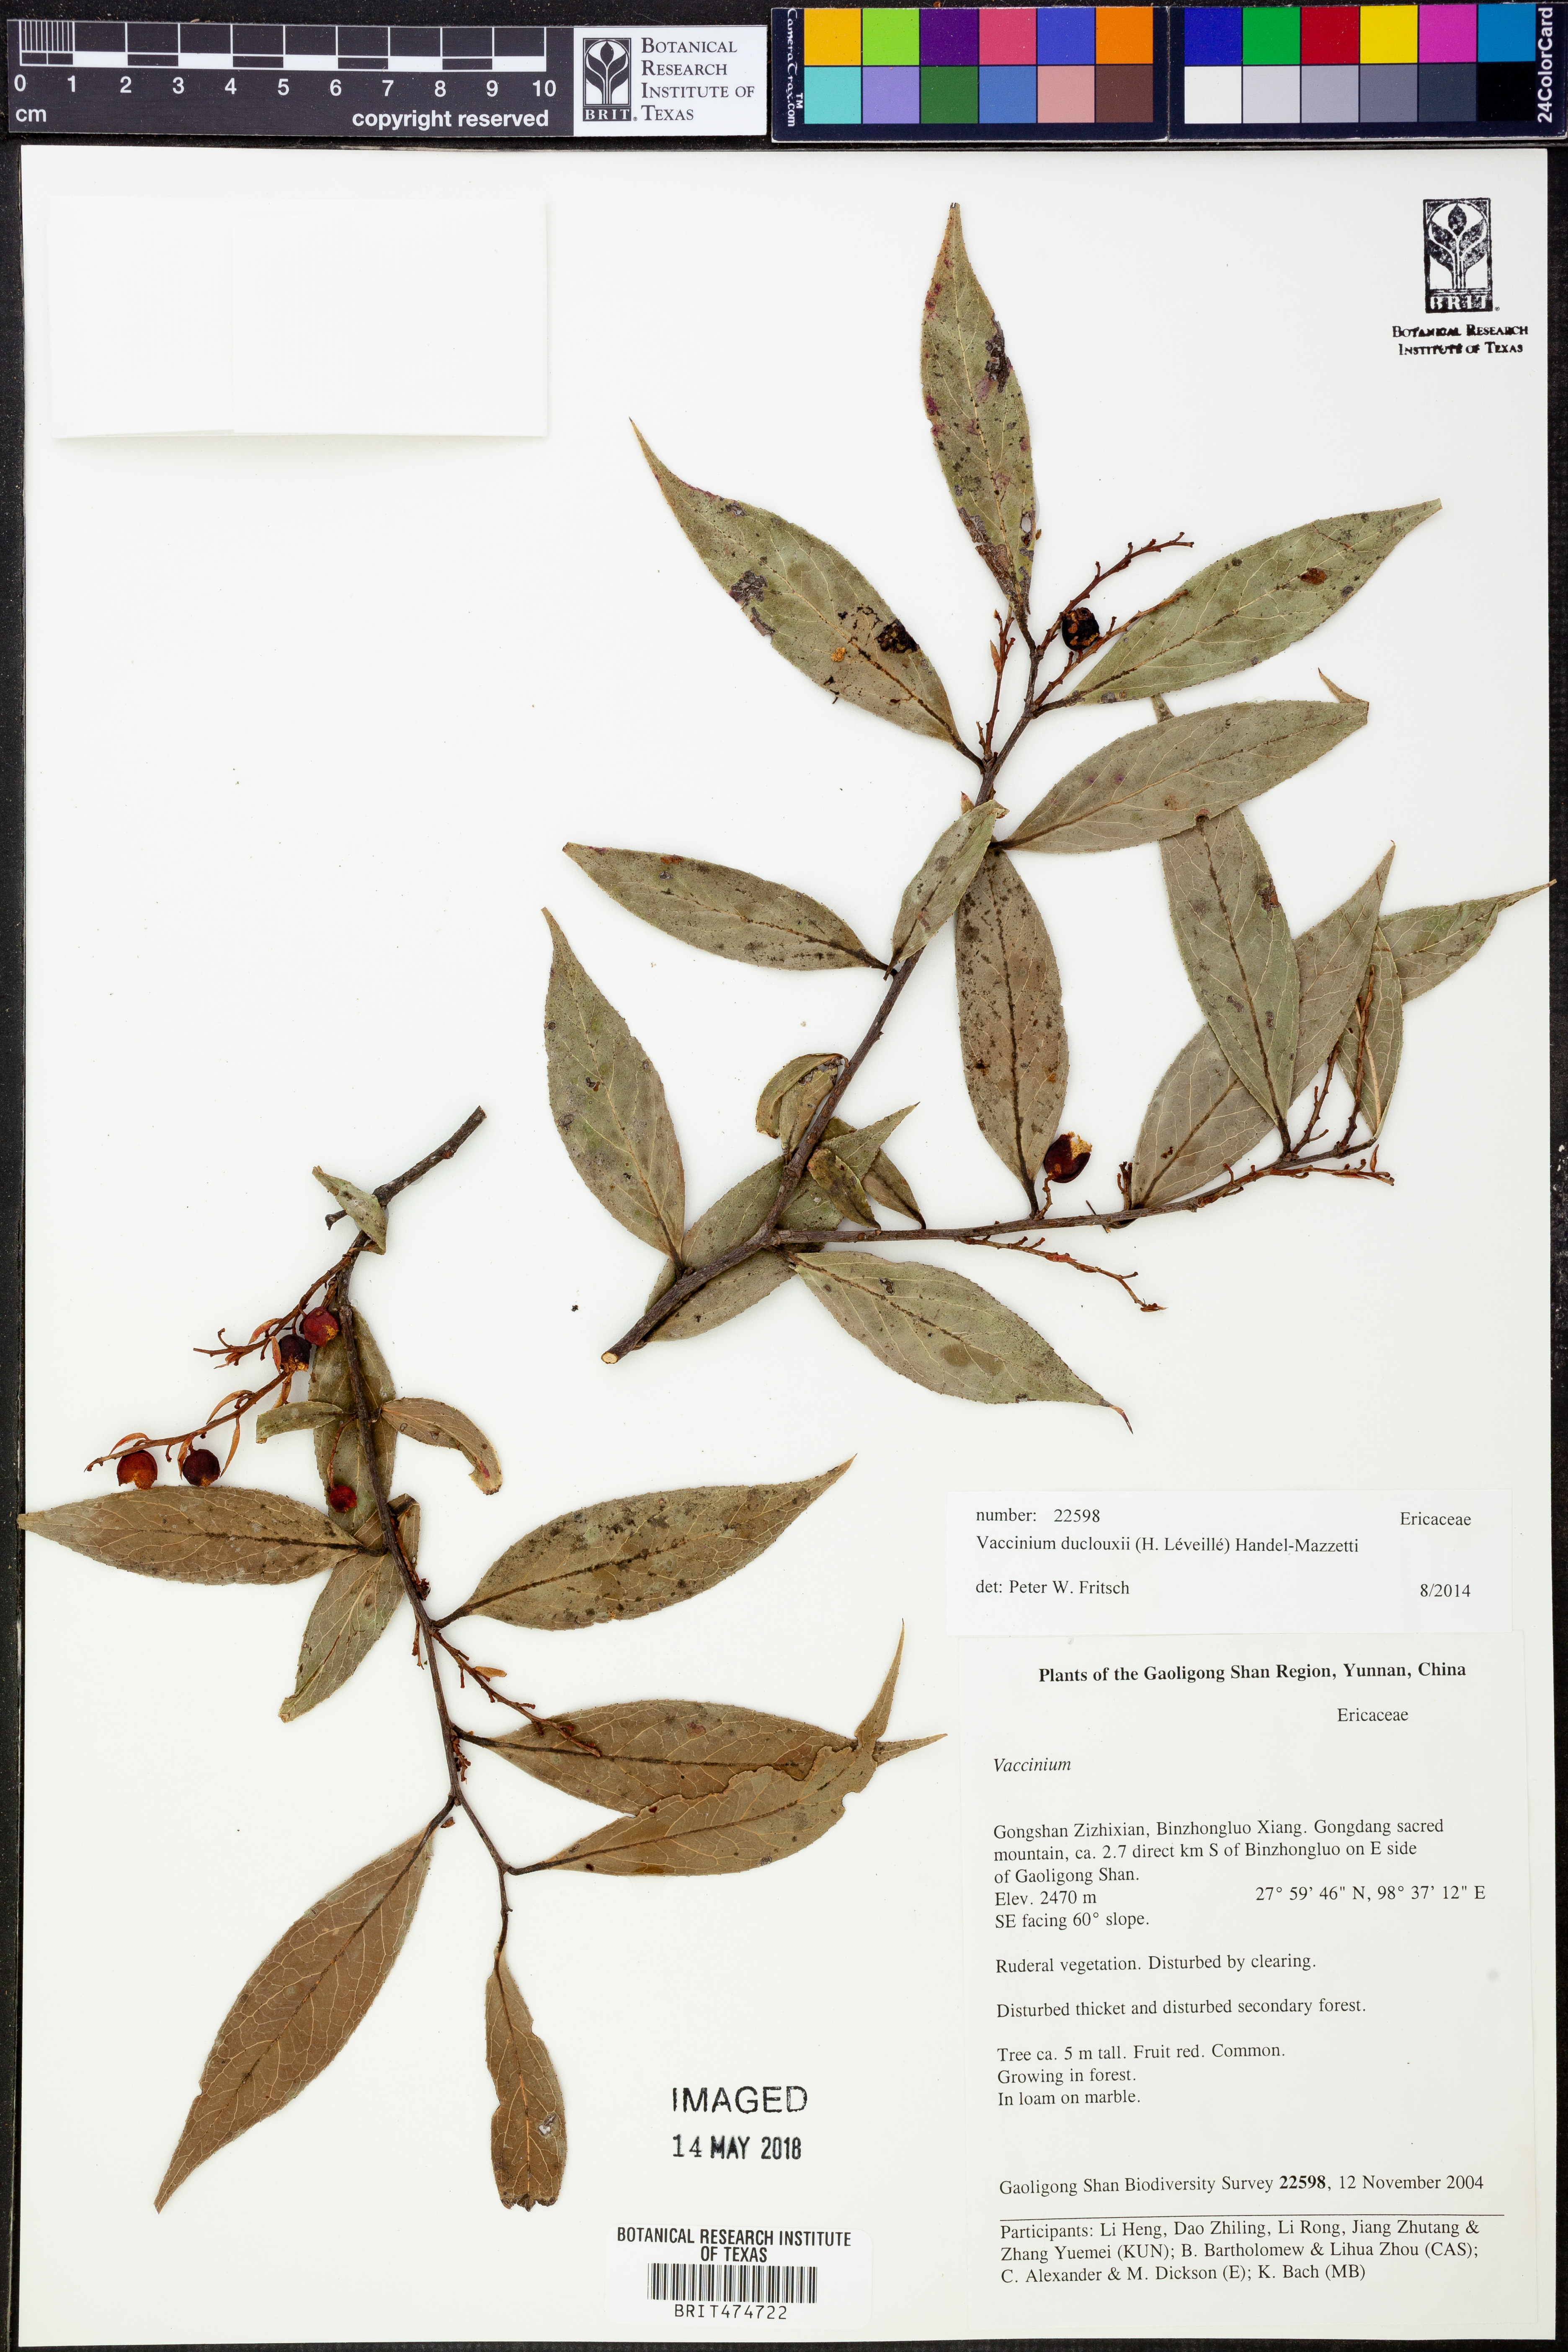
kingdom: Plantae
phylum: Tracheophyta
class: Magnoliopsida
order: Ericales
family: Ericaceae
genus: Vaccinium
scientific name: Vaccinium duclouxii
